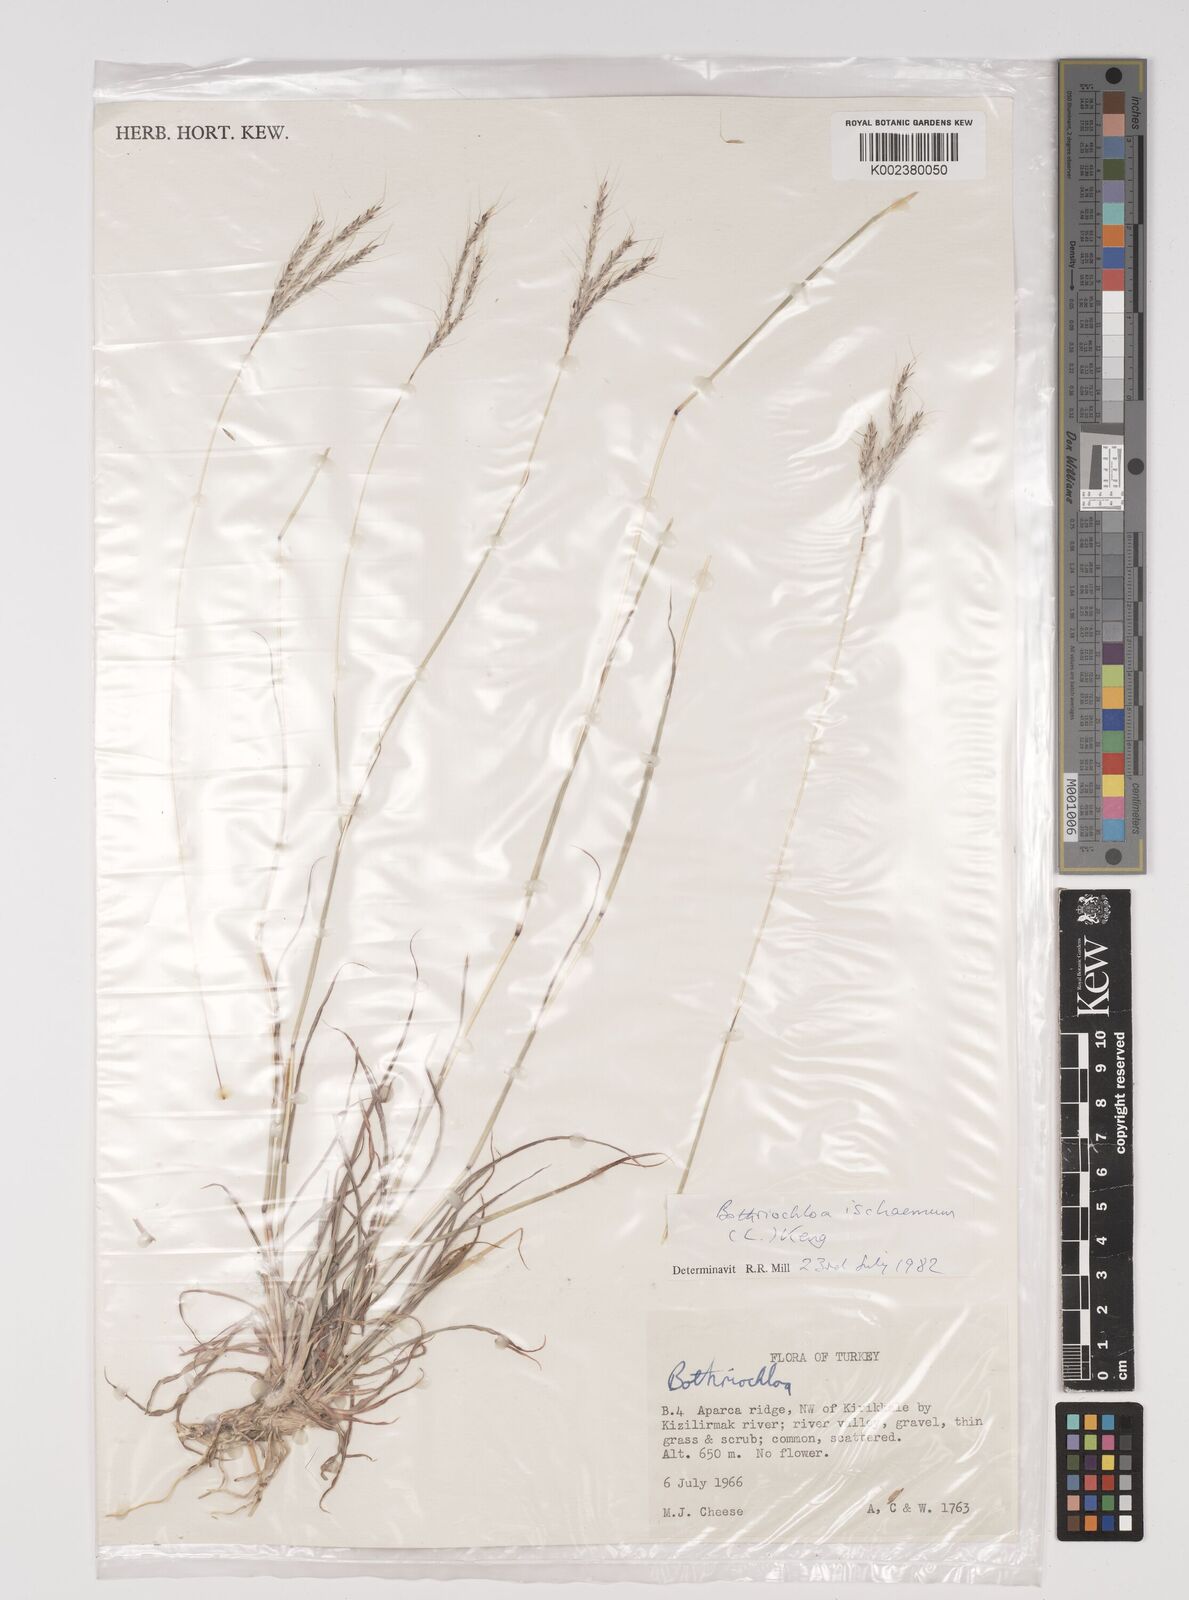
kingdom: Plantae
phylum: Tracheophyta
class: Liliopsida
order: Poales
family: Poaceae
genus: Bothriochloa
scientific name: Bothriochloa ischaemum
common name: Yellow bluestem
